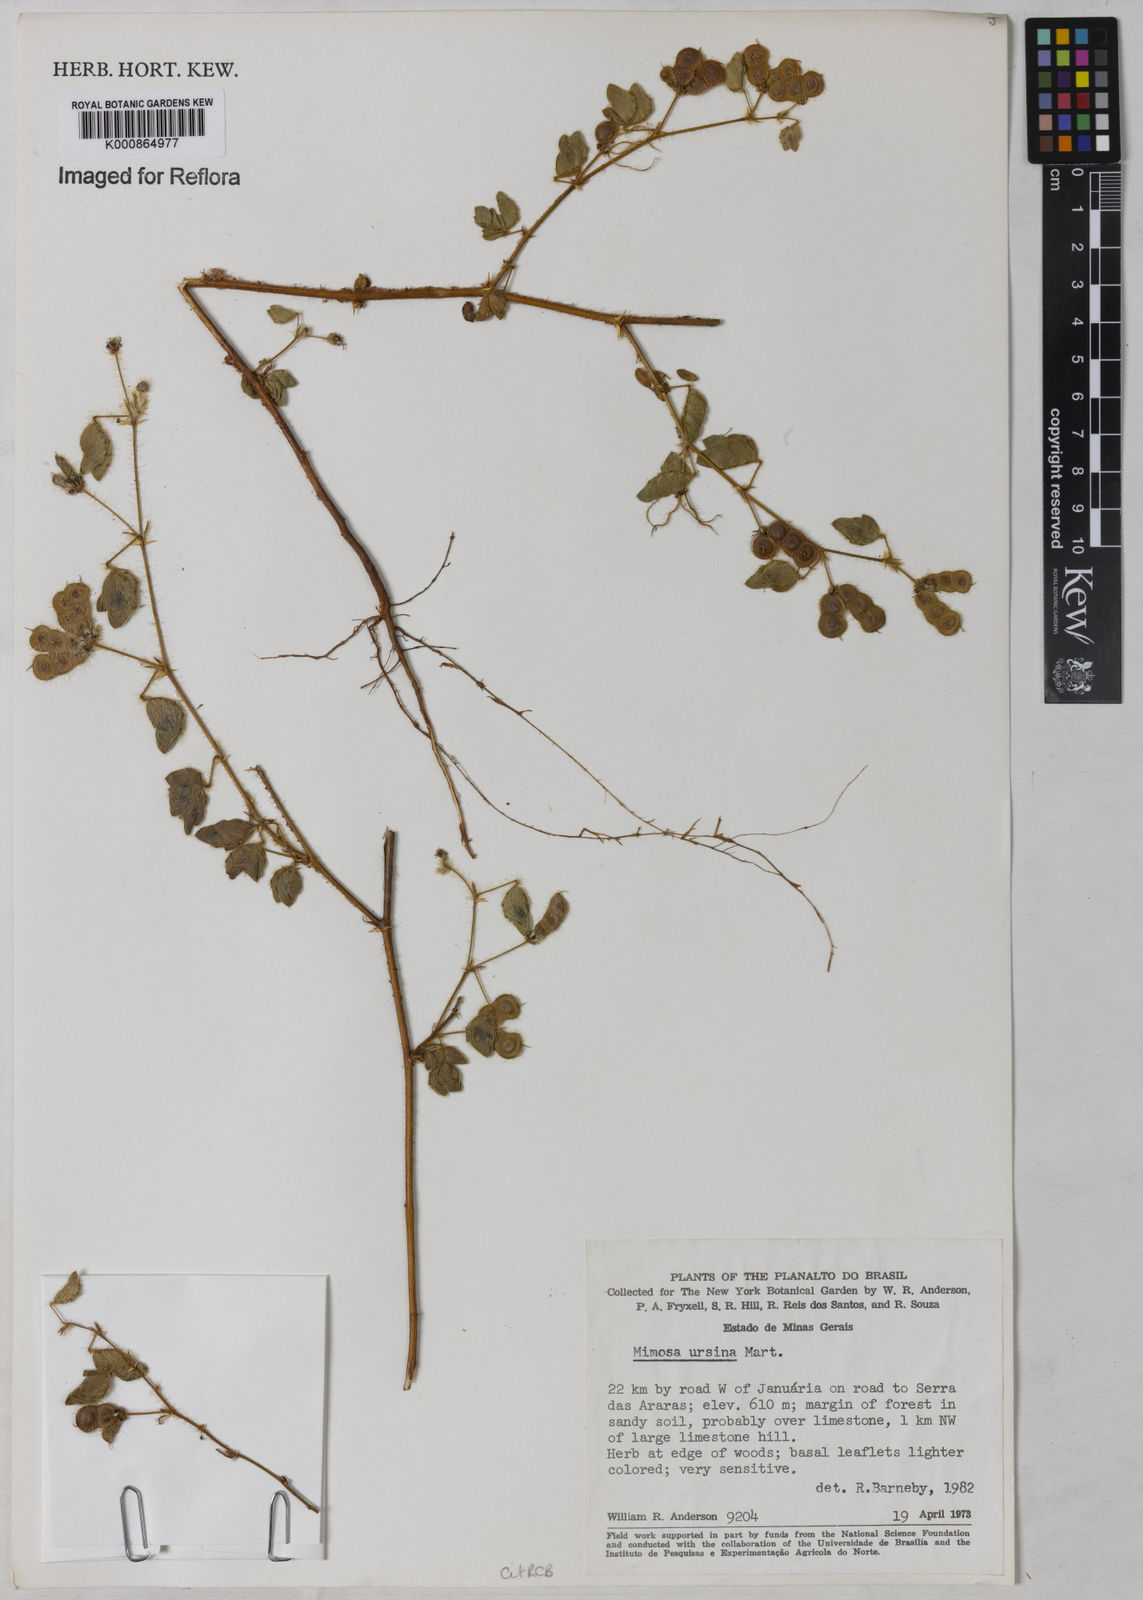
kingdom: Plantae
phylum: Tracheophyta
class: Magnoliopsida
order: Fabales
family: Fabaceae
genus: Mimosa
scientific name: Mimosa ursina
